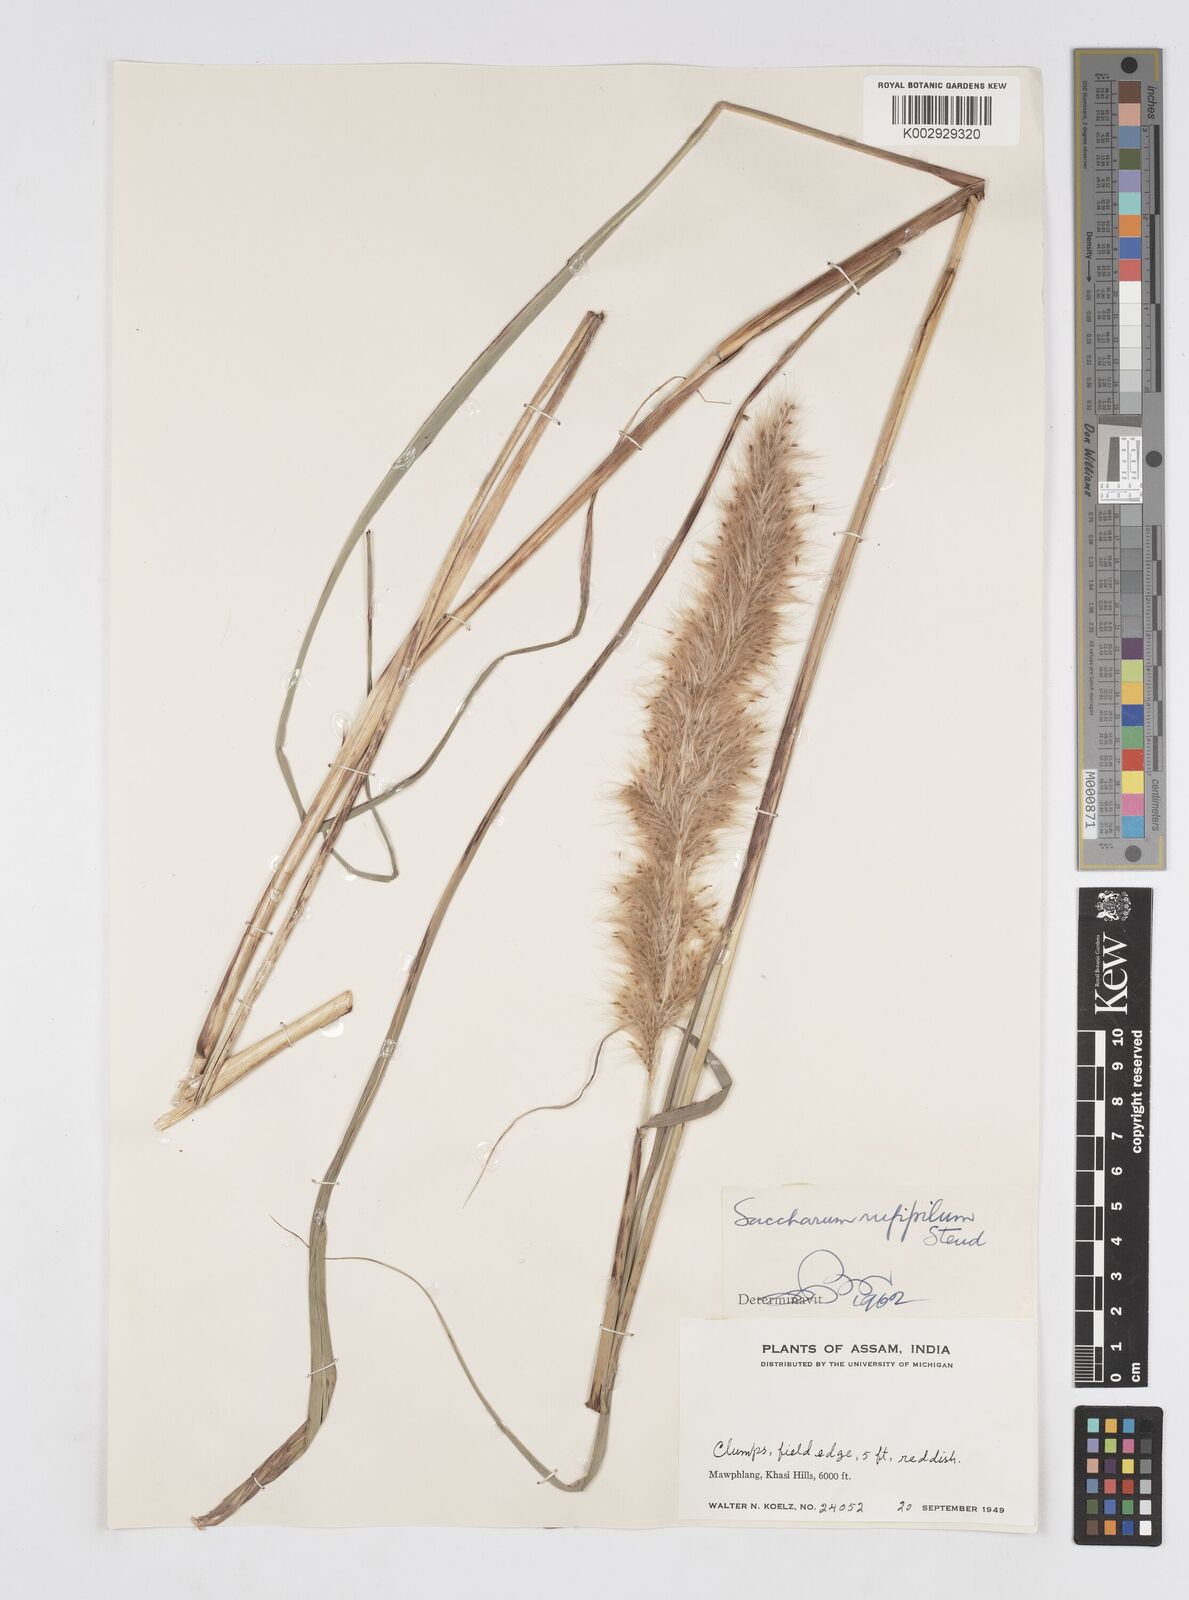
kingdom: Plantae
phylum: Tracheophyta
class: Liliopsida
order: Poales
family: Poaceae
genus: Tripidium
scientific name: Tripidium rufipilum
